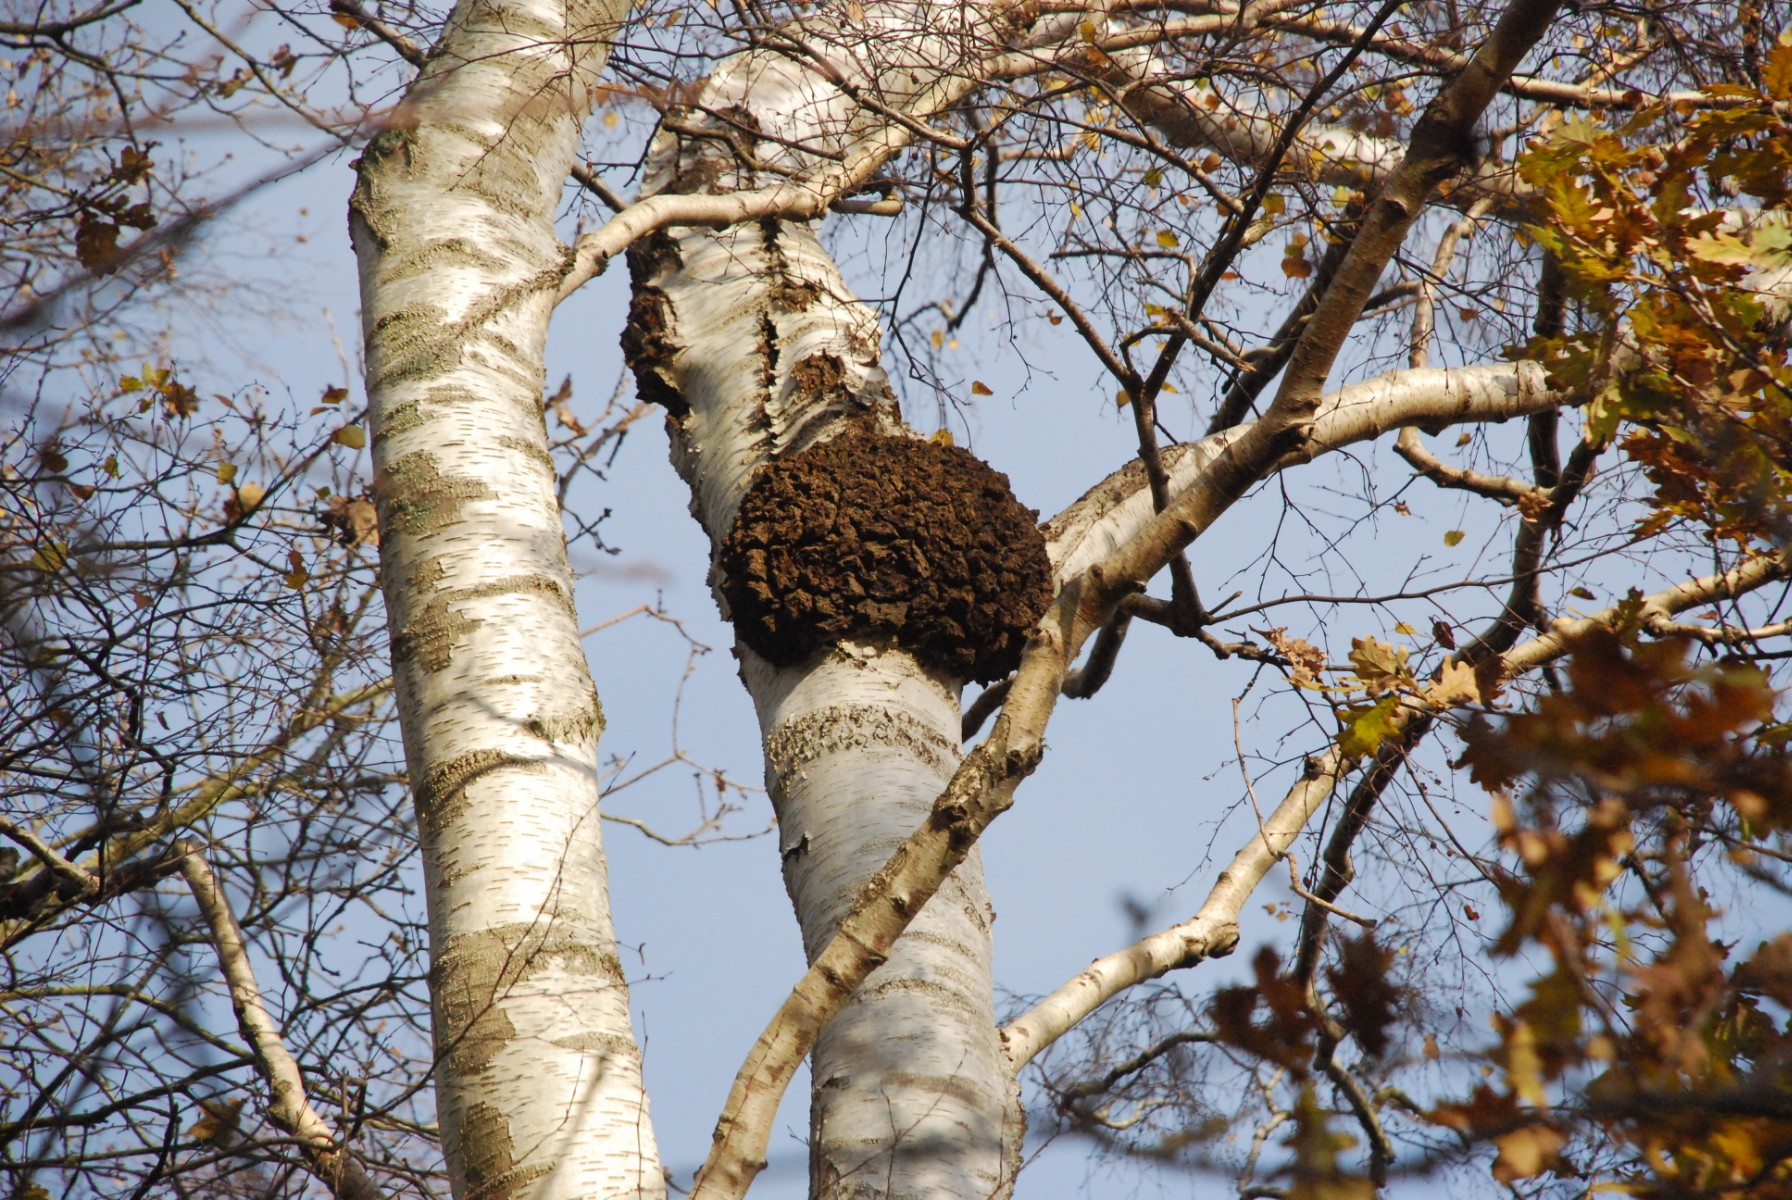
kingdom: Fungi
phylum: Basidiomycota
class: Agaricomycetes
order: Hymenochaetales
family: Hymenochaetaceae
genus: Inonotus
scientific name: Inonotus obliquus
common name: birke-spejlporesvamp
